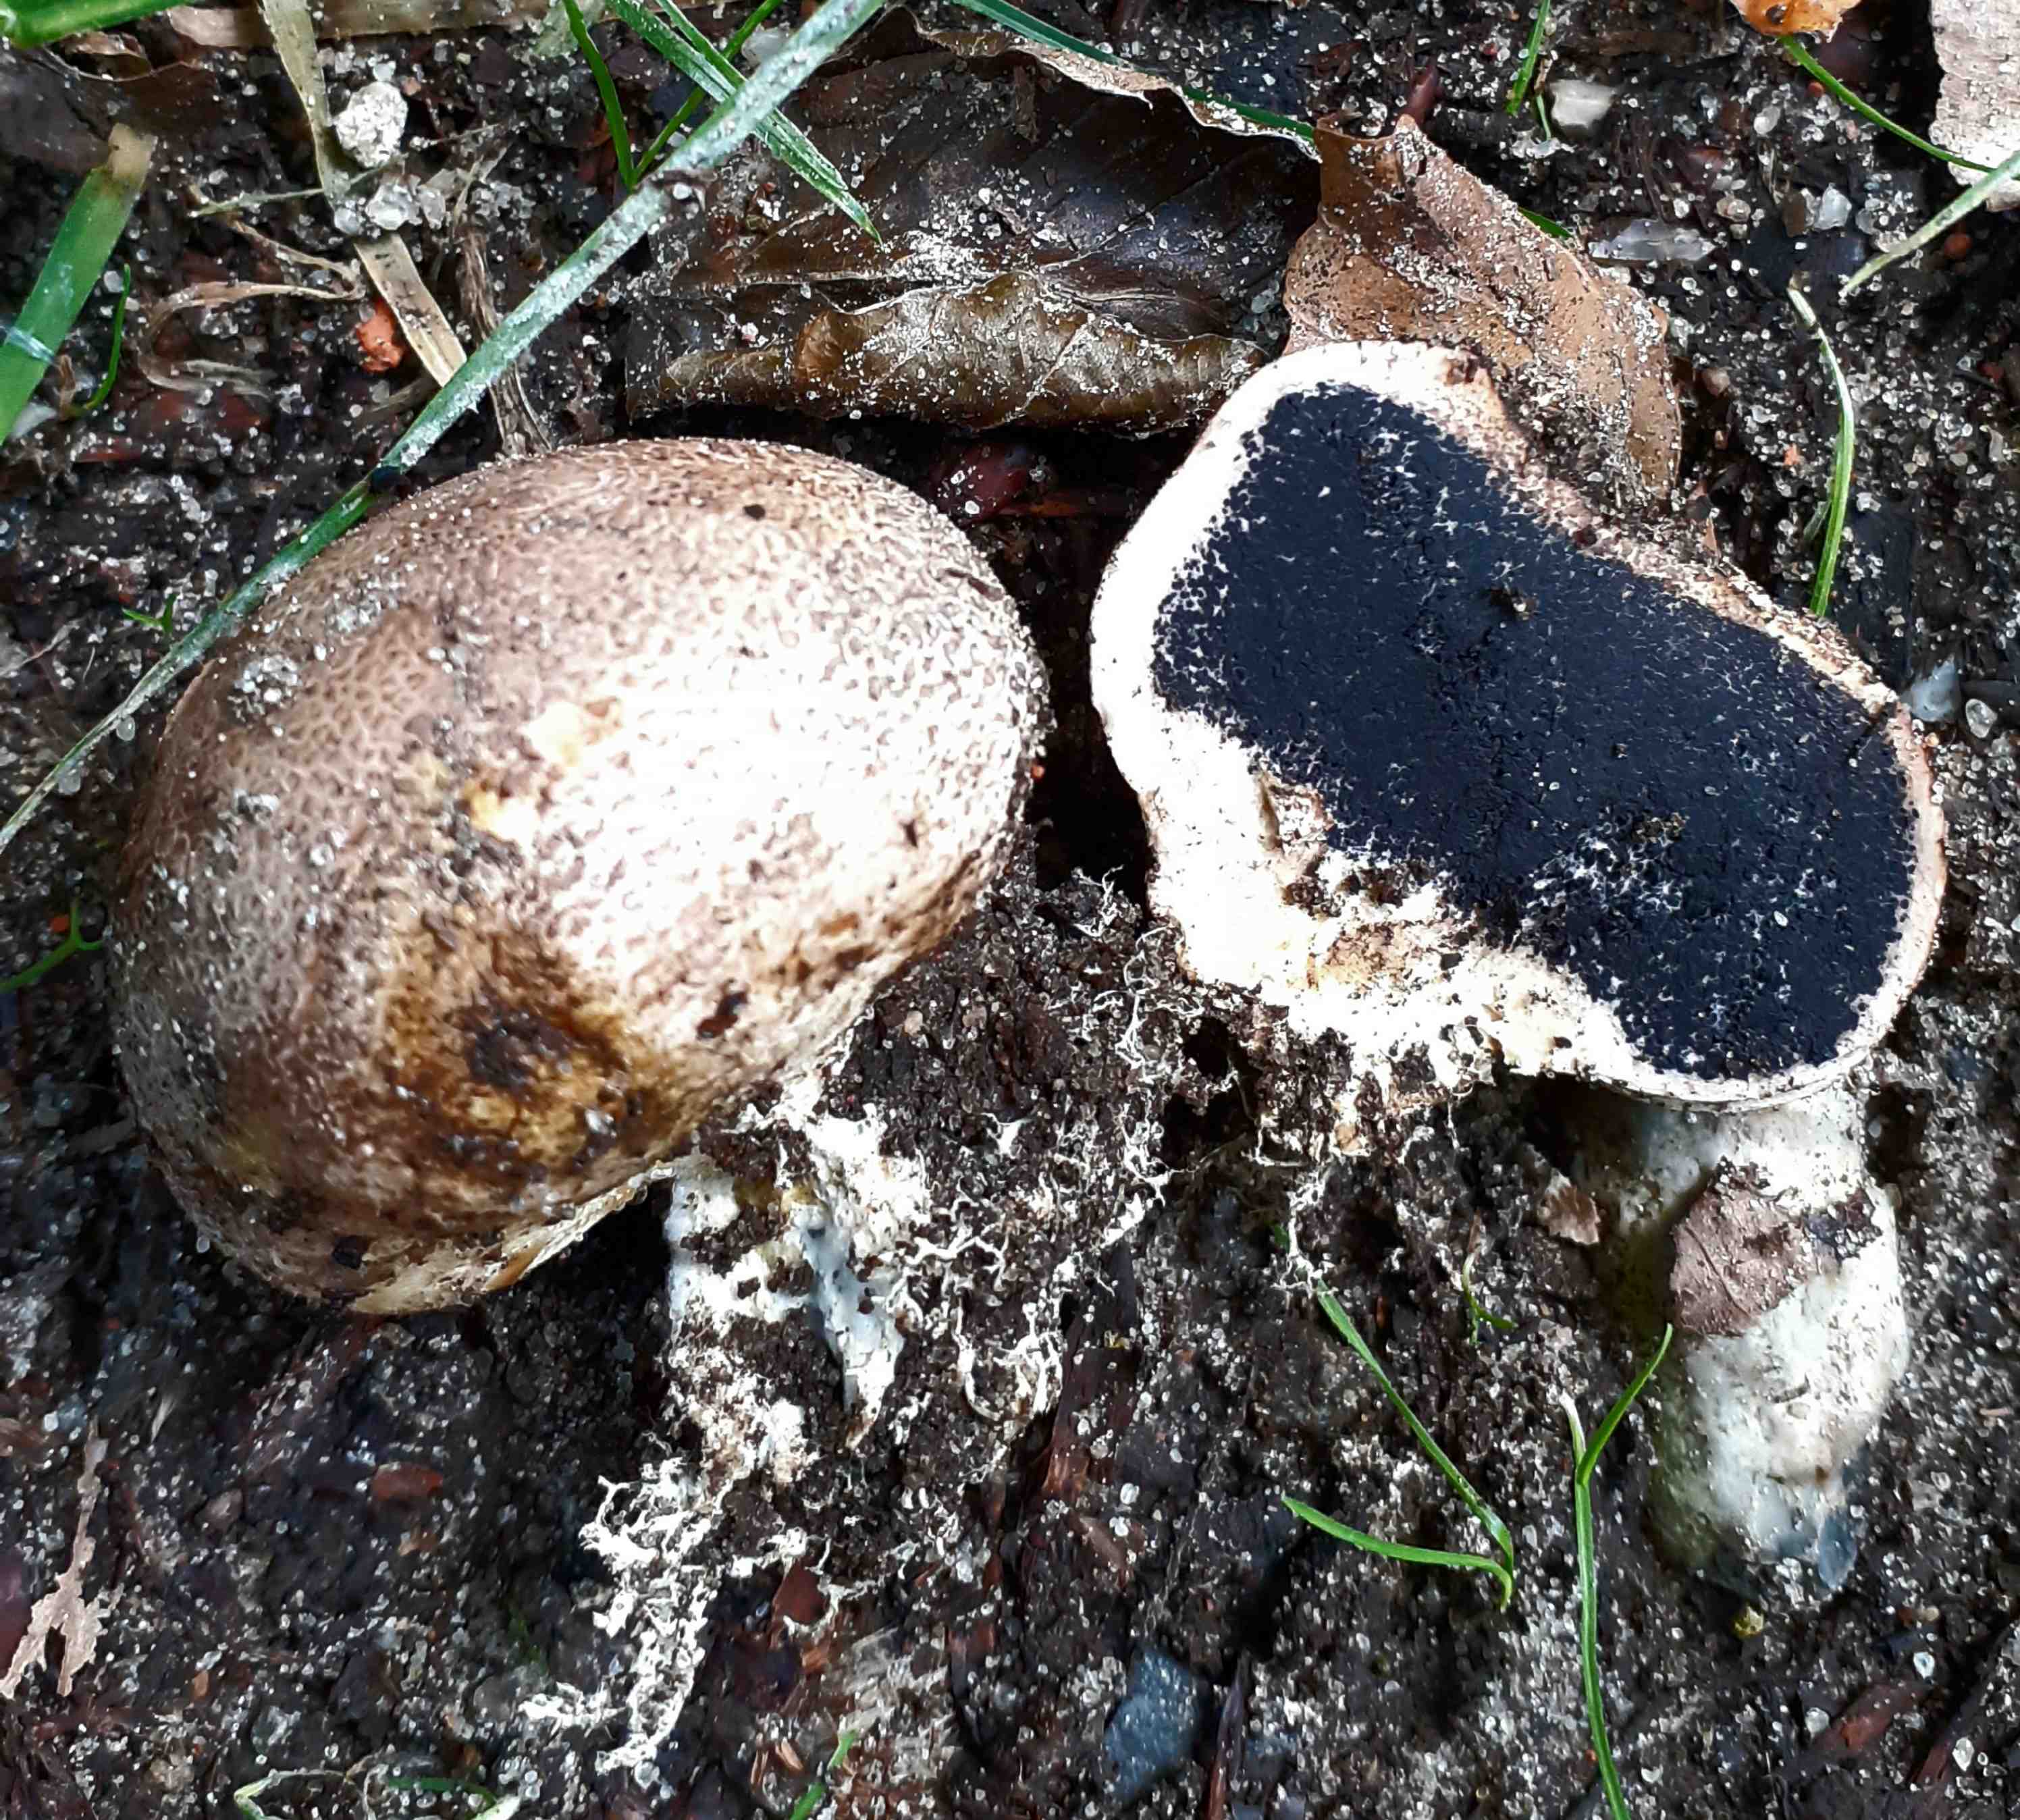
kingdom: Fungi
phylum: Basidiomycota
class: Agaricomycetes
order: Boletales
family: Sclerodermataceae
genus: Scleroderma
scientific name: Scleroderma bovista
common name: bovist-bruskbold
